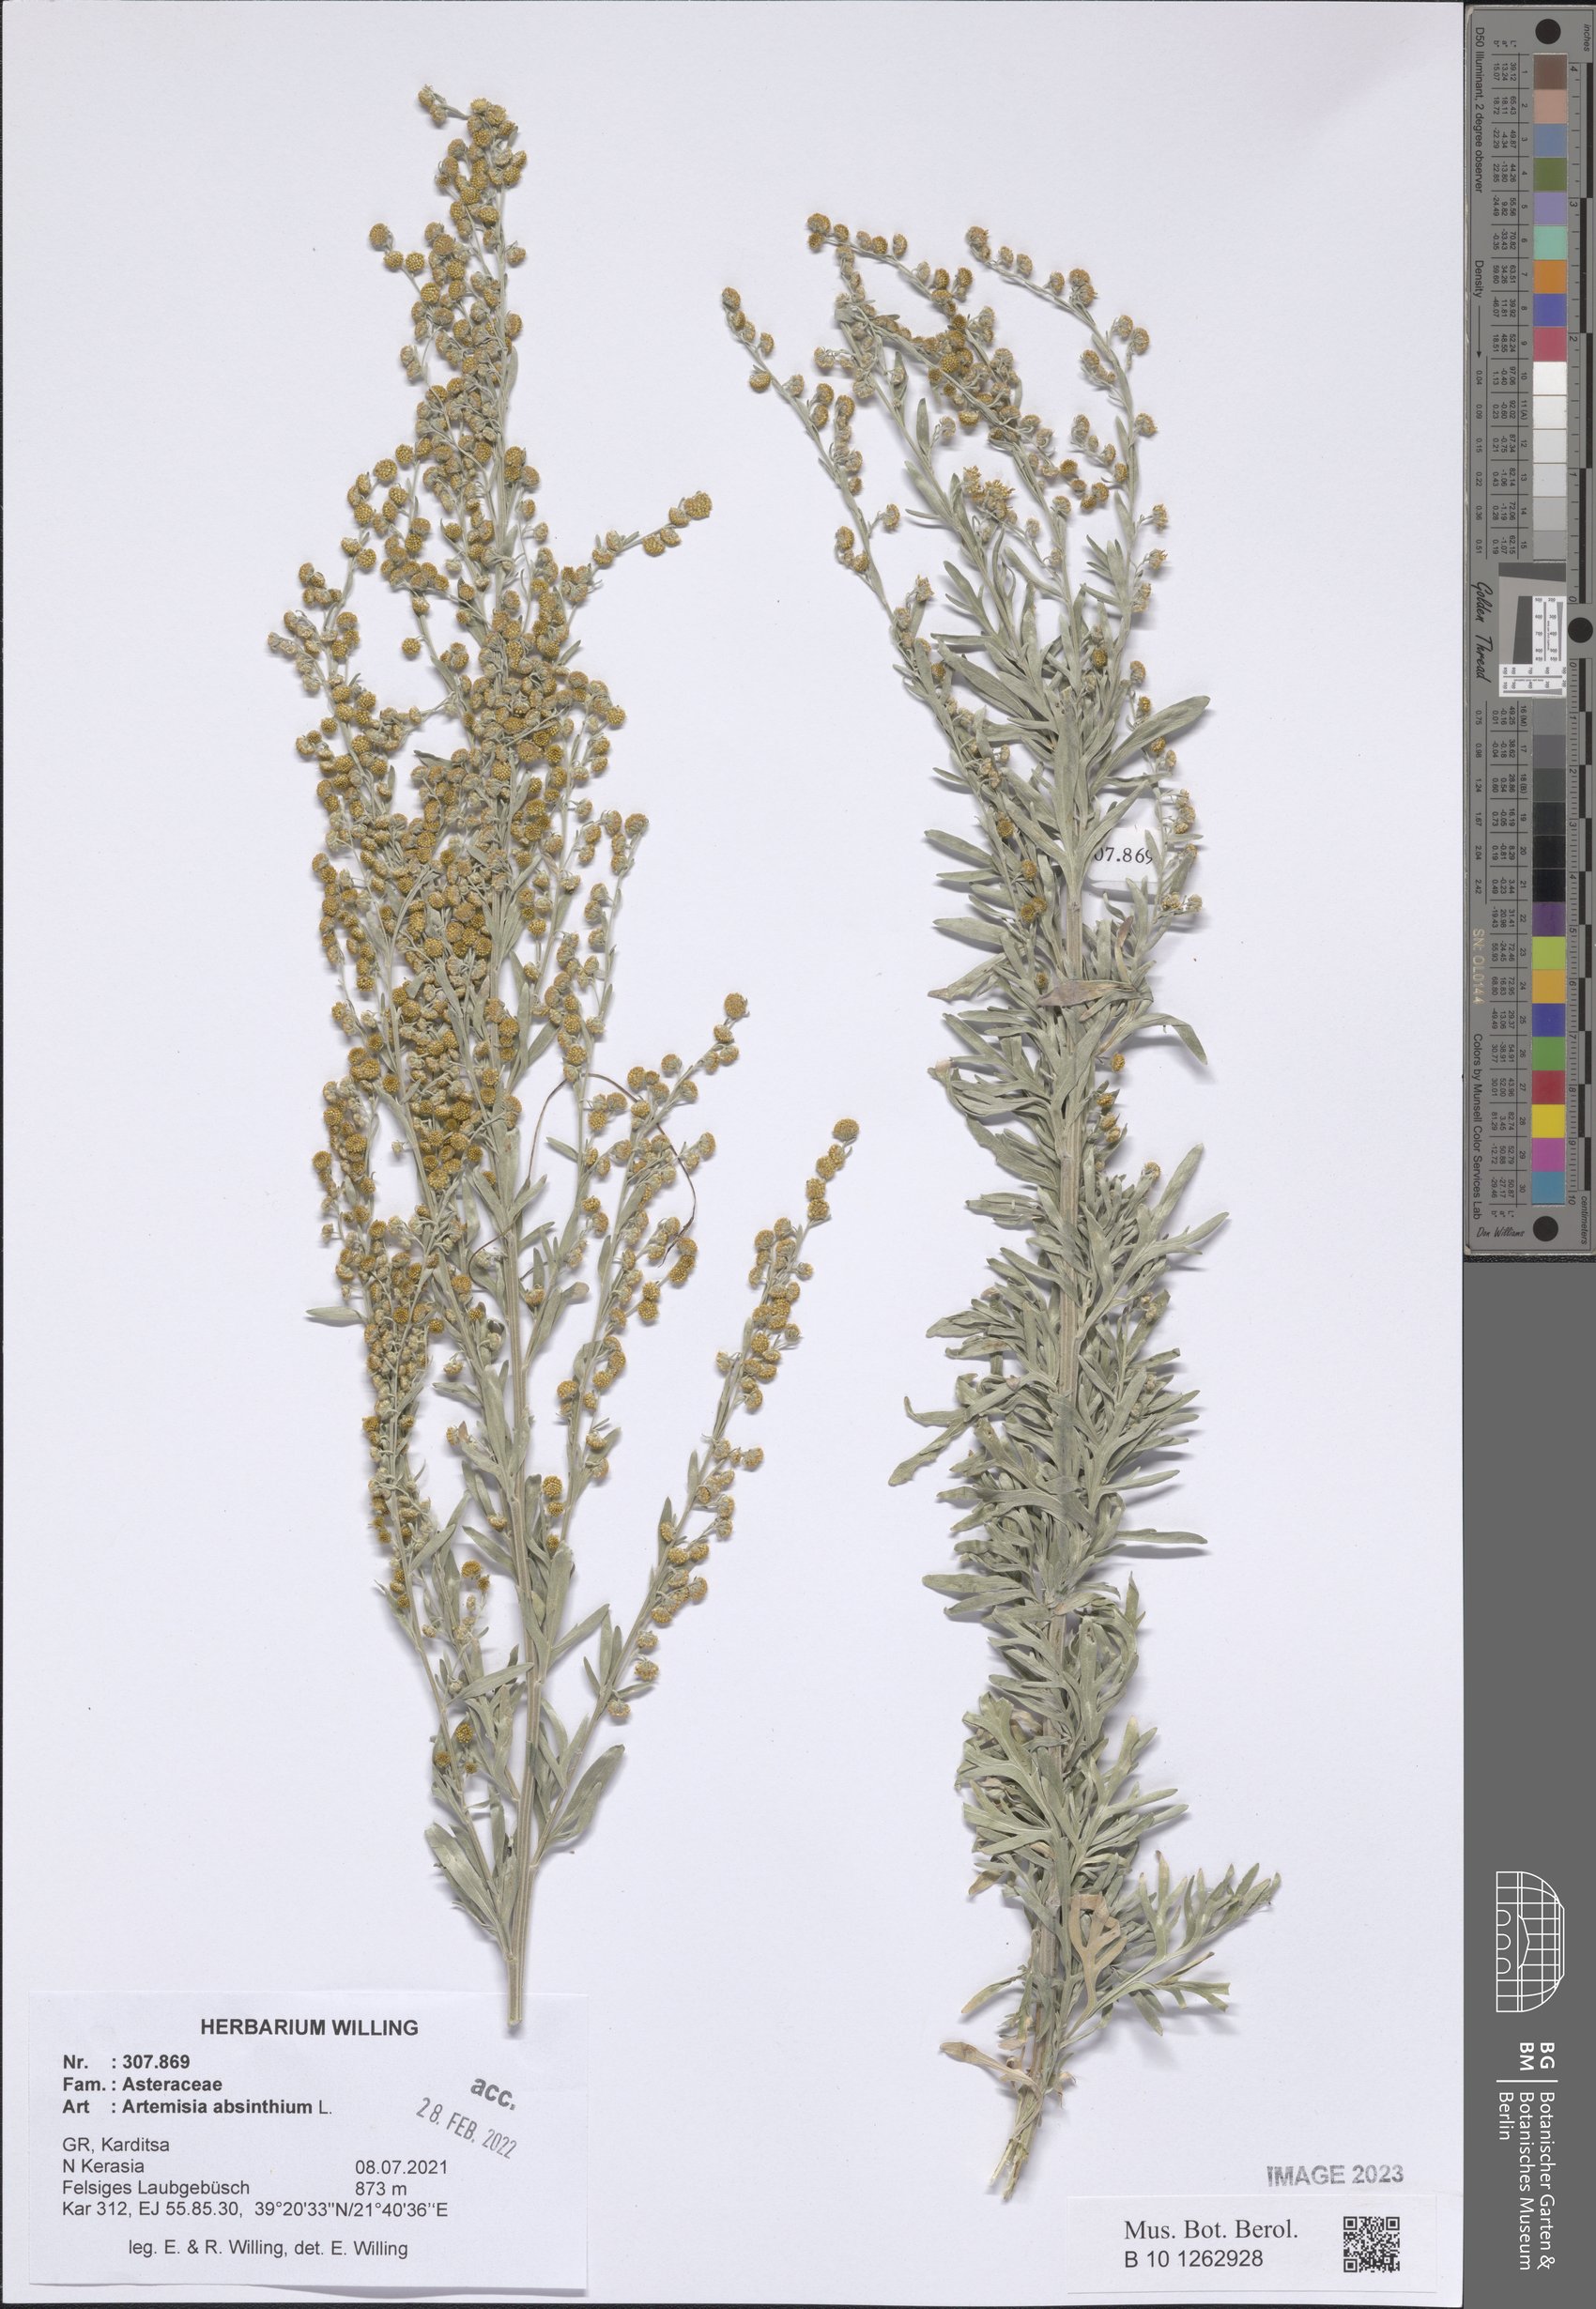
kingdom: Plantae
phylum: Tracheophyta
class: Magnoliopsida
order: Asterales
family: Asteraceae
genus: Artemisia
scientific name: Artemisia absinthium
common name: Wormwood
